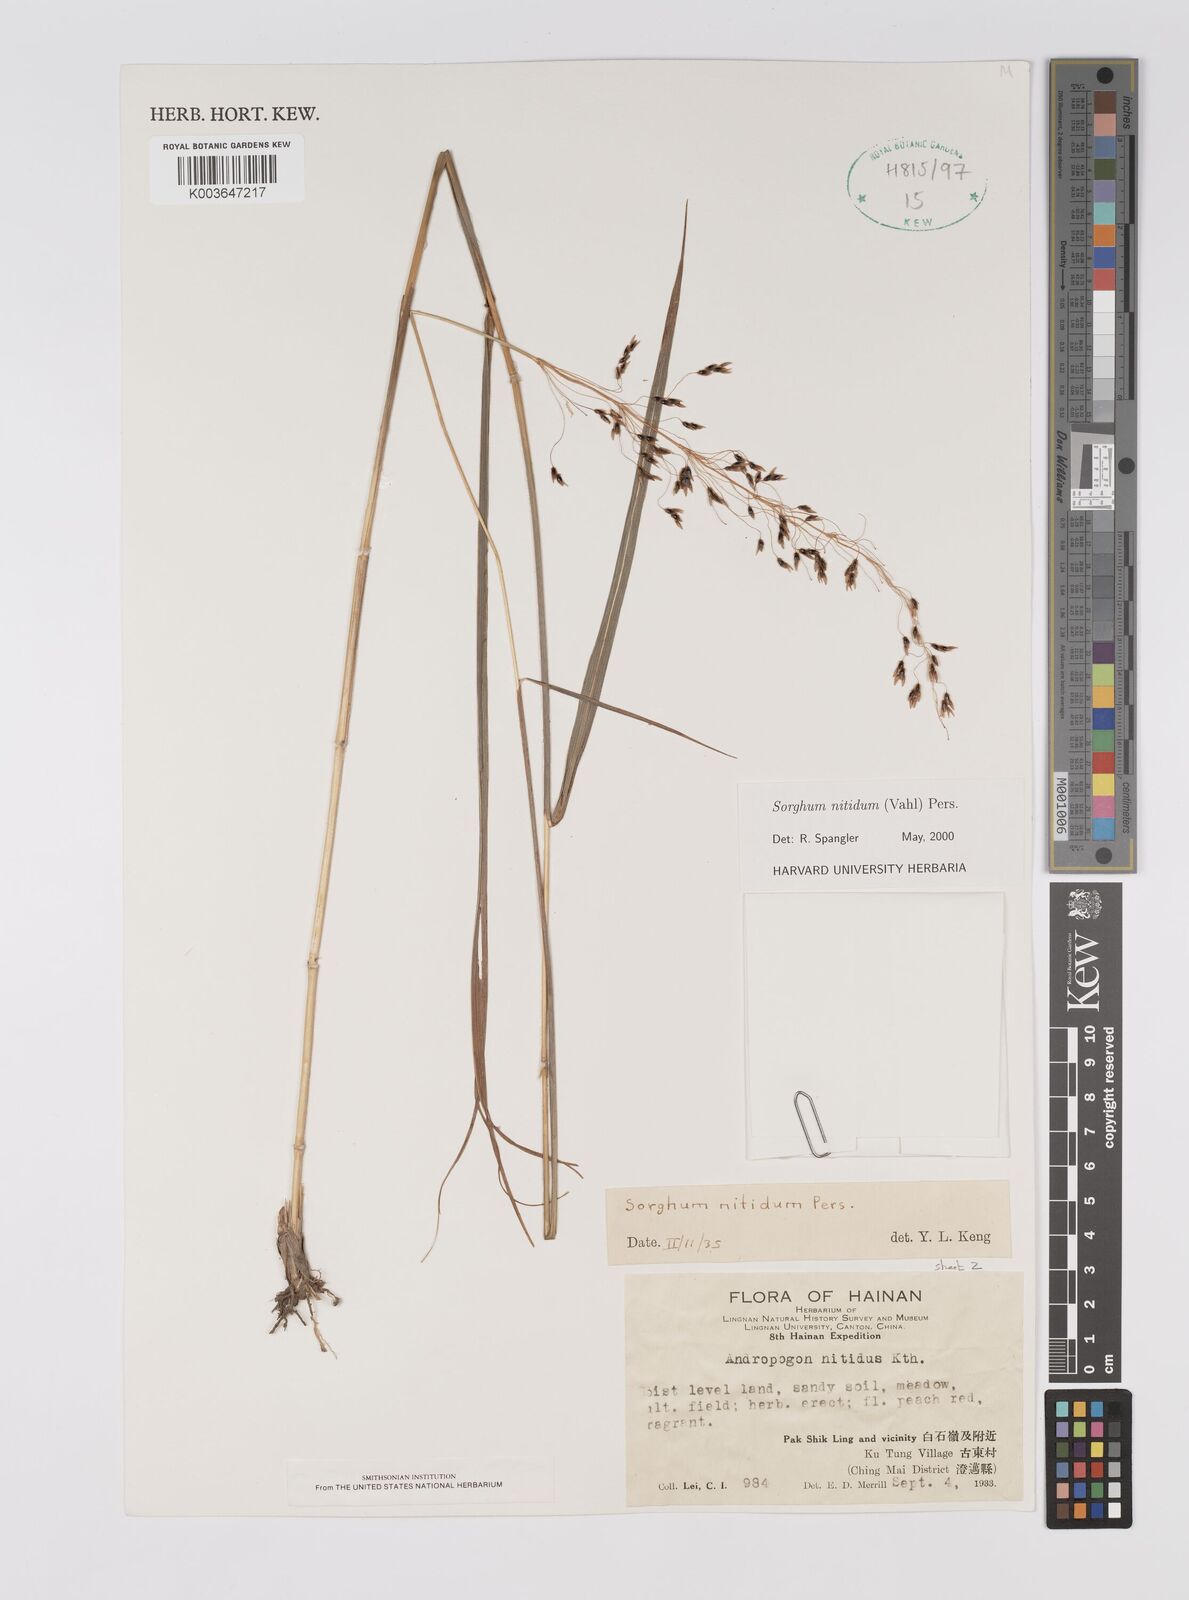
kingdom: Plantae
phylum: Tracheophyta
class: Liliopsida
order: Poales
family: Poaceae
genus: Sorghum
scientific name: Sorghum nitidum
